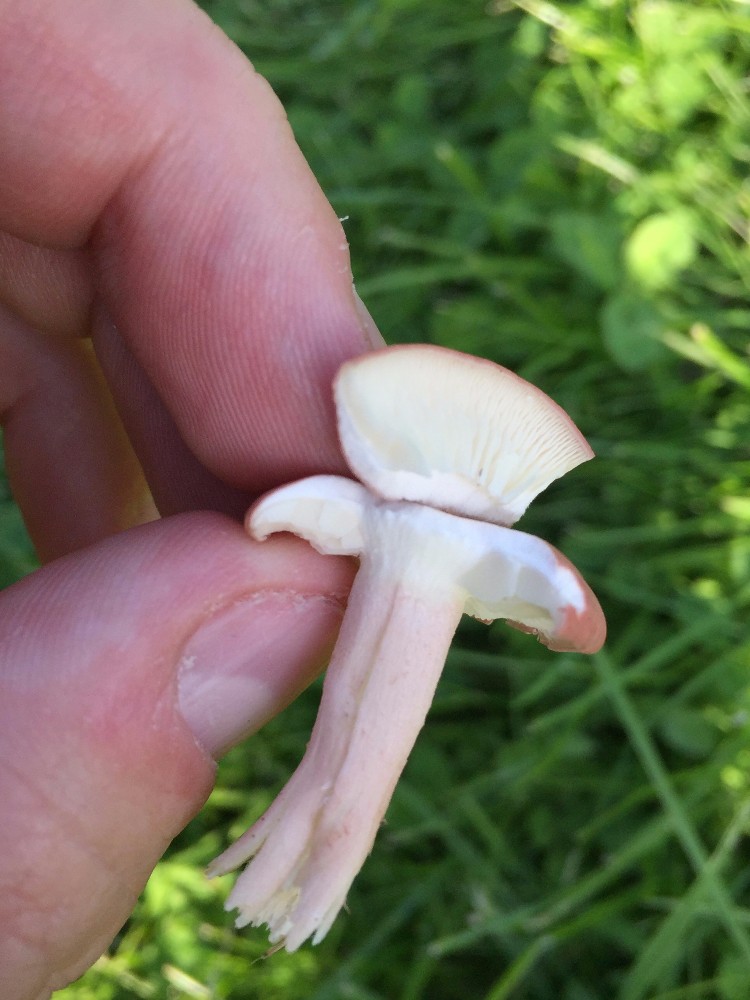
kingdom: Fungi
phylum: Basidiomycota
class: Agaricomycetes
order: Agaricales
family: Lyophyllaceae
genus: Calocybe
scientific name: Calocybe carnea
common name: rosa fagerhat
